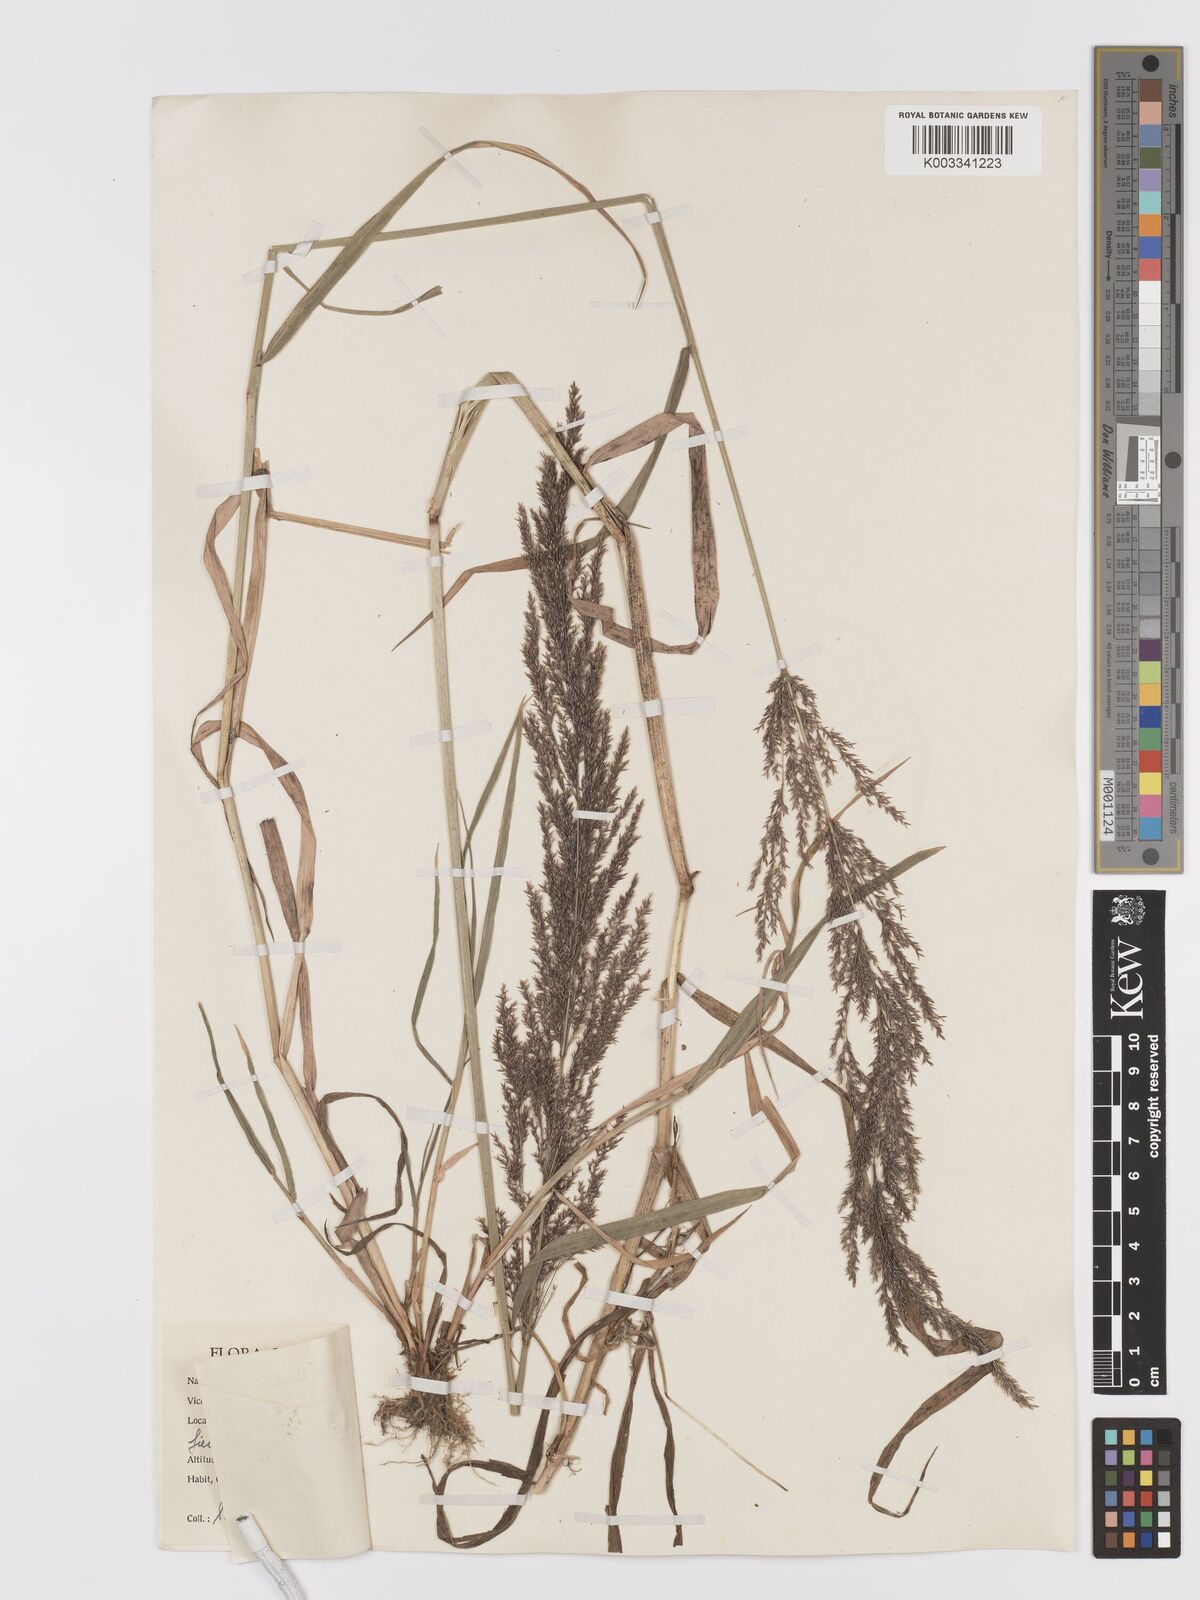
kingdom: Plantae
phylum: Tracheophyta
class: Liliopsida
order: Poales
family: Poaceae
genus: Agrostis
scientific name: Agrostis gigantea
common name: Black bent
